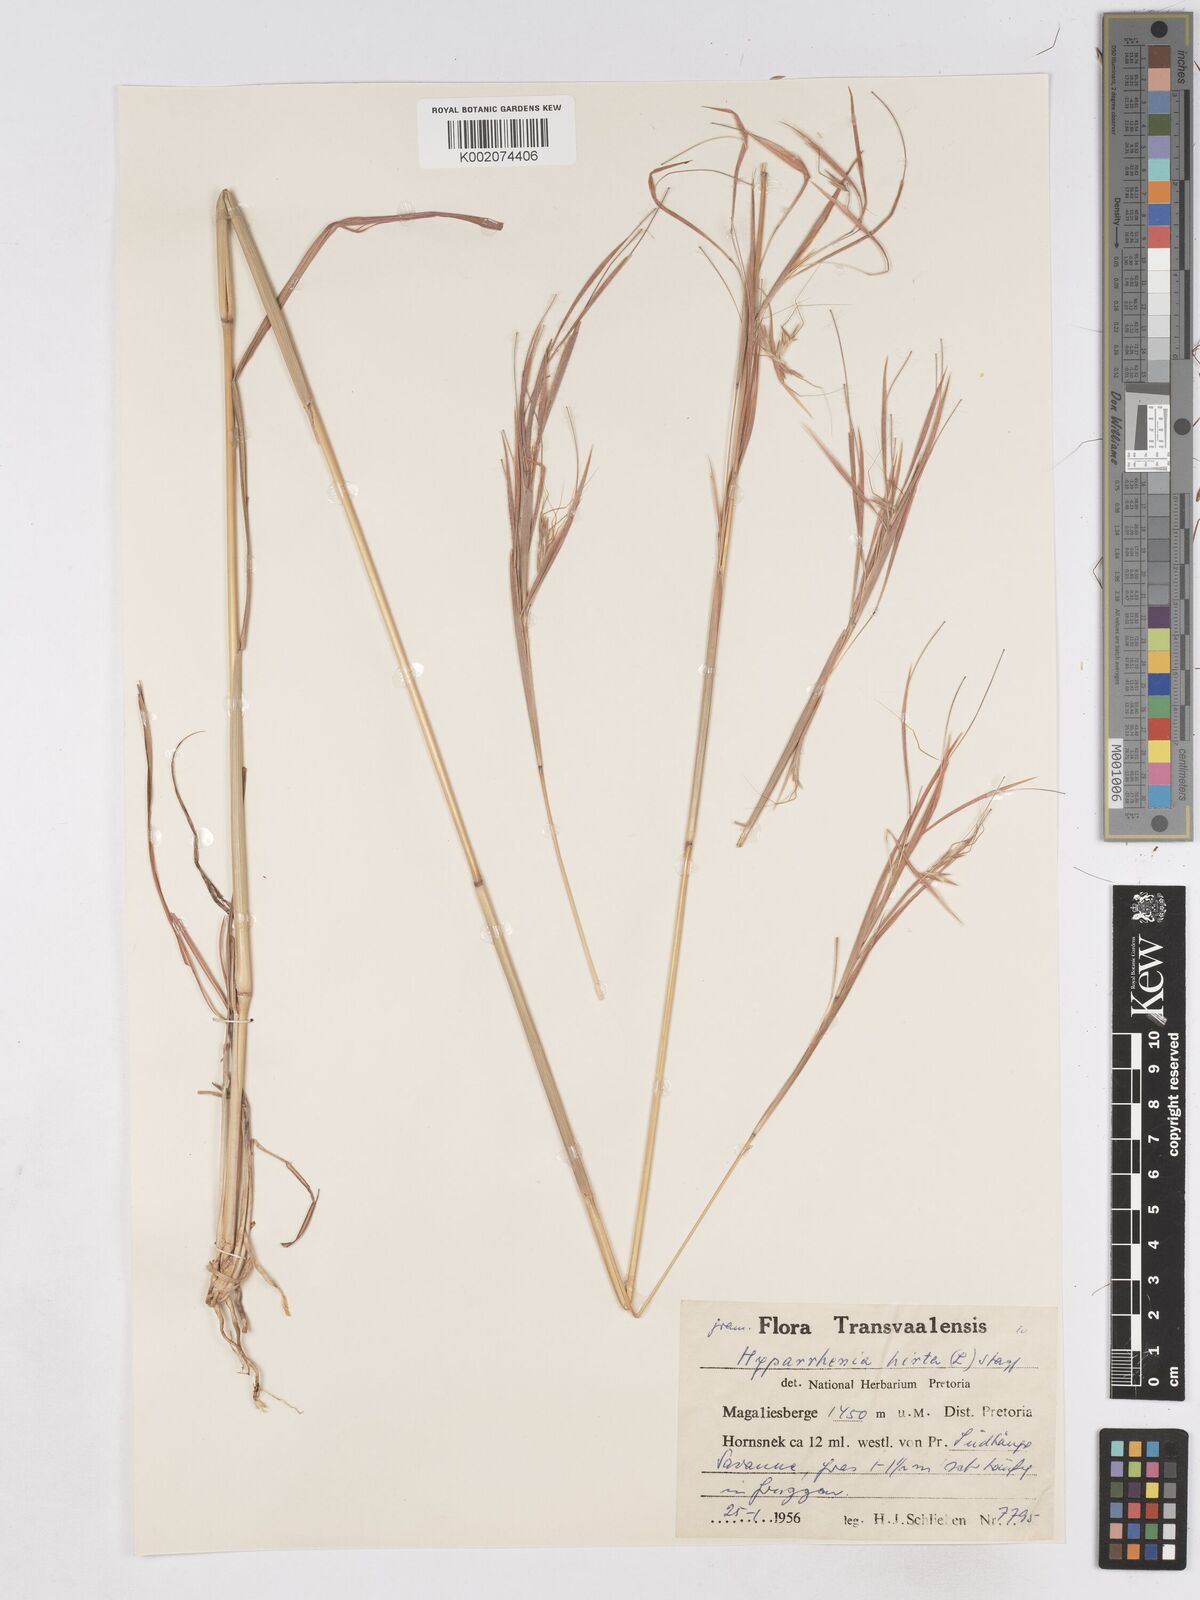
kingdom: Plantae
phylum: Tracheophyta
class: Liliopsida
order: Poales
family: Poaceae
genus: Hyparrhenia
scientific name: Hyparrhenia hirta
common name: Thatching grass
